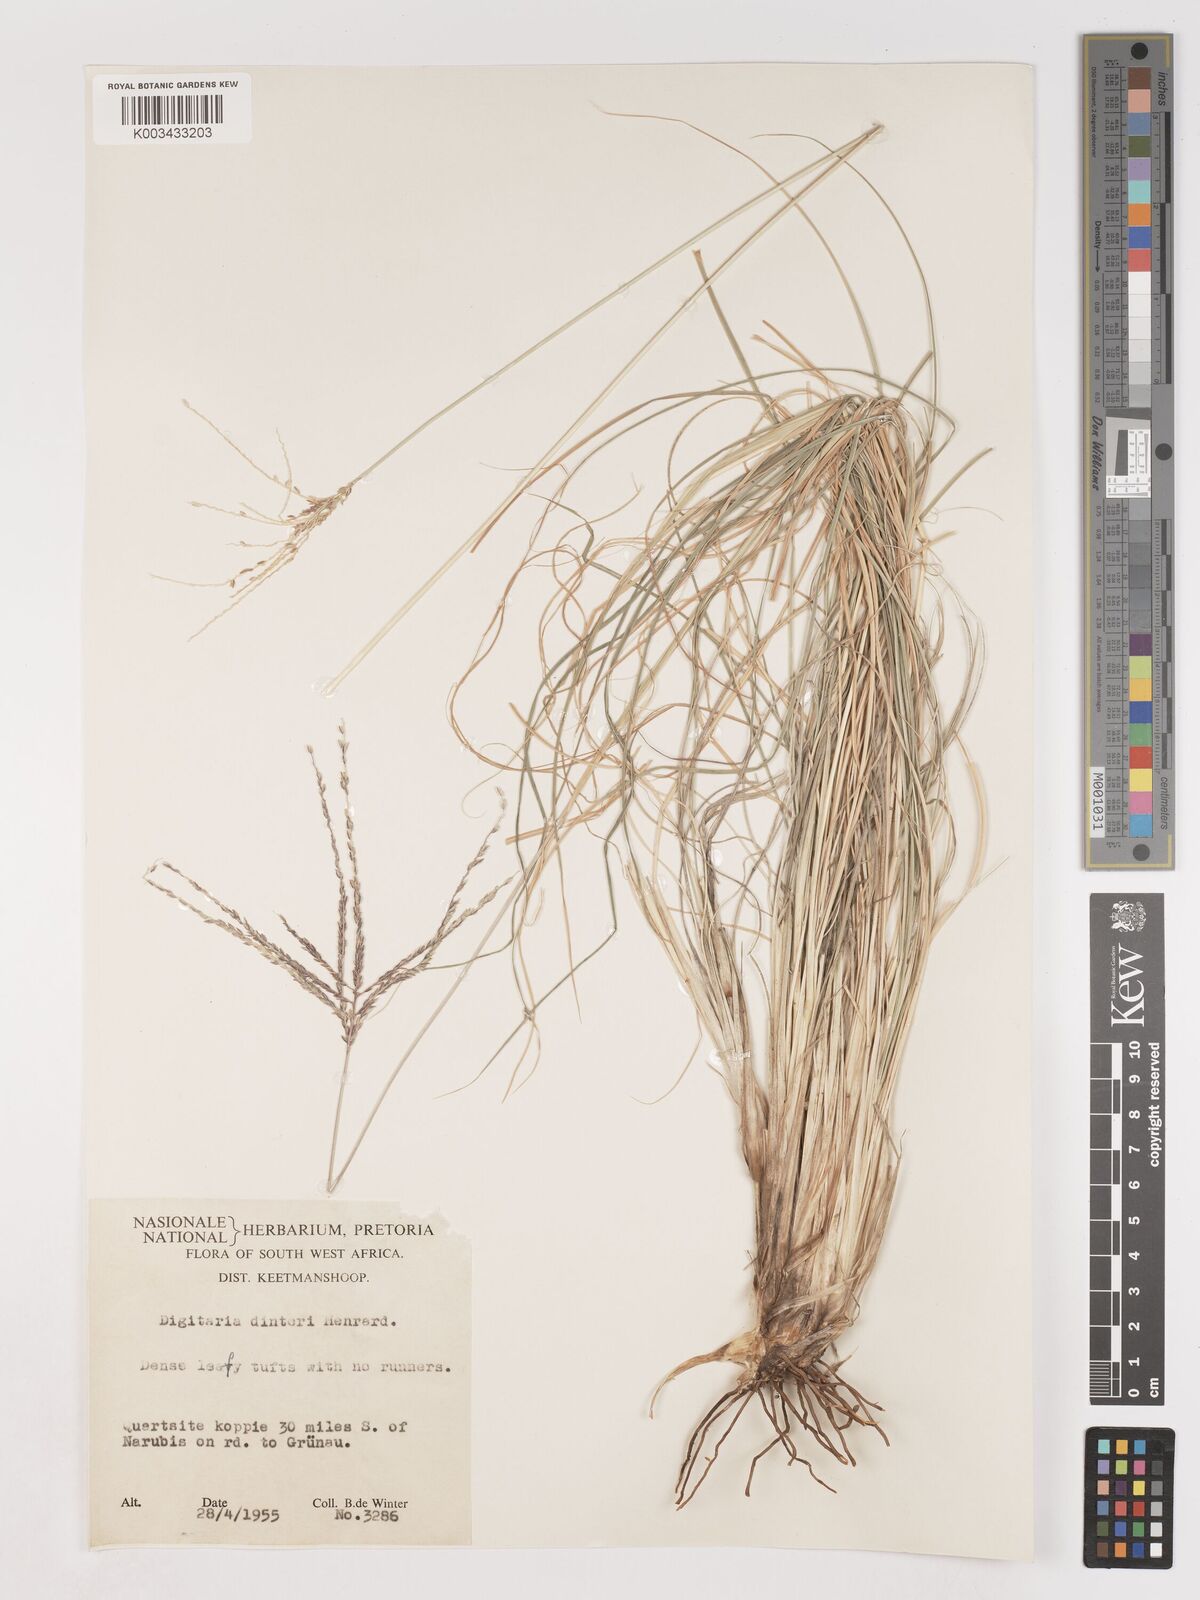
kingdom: Plantae
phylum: Tracheophyta
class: Liliopsida
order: Poales
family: Poaceae
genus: Digitaria
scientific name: Digitaria eriantha
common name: Digitgrass
